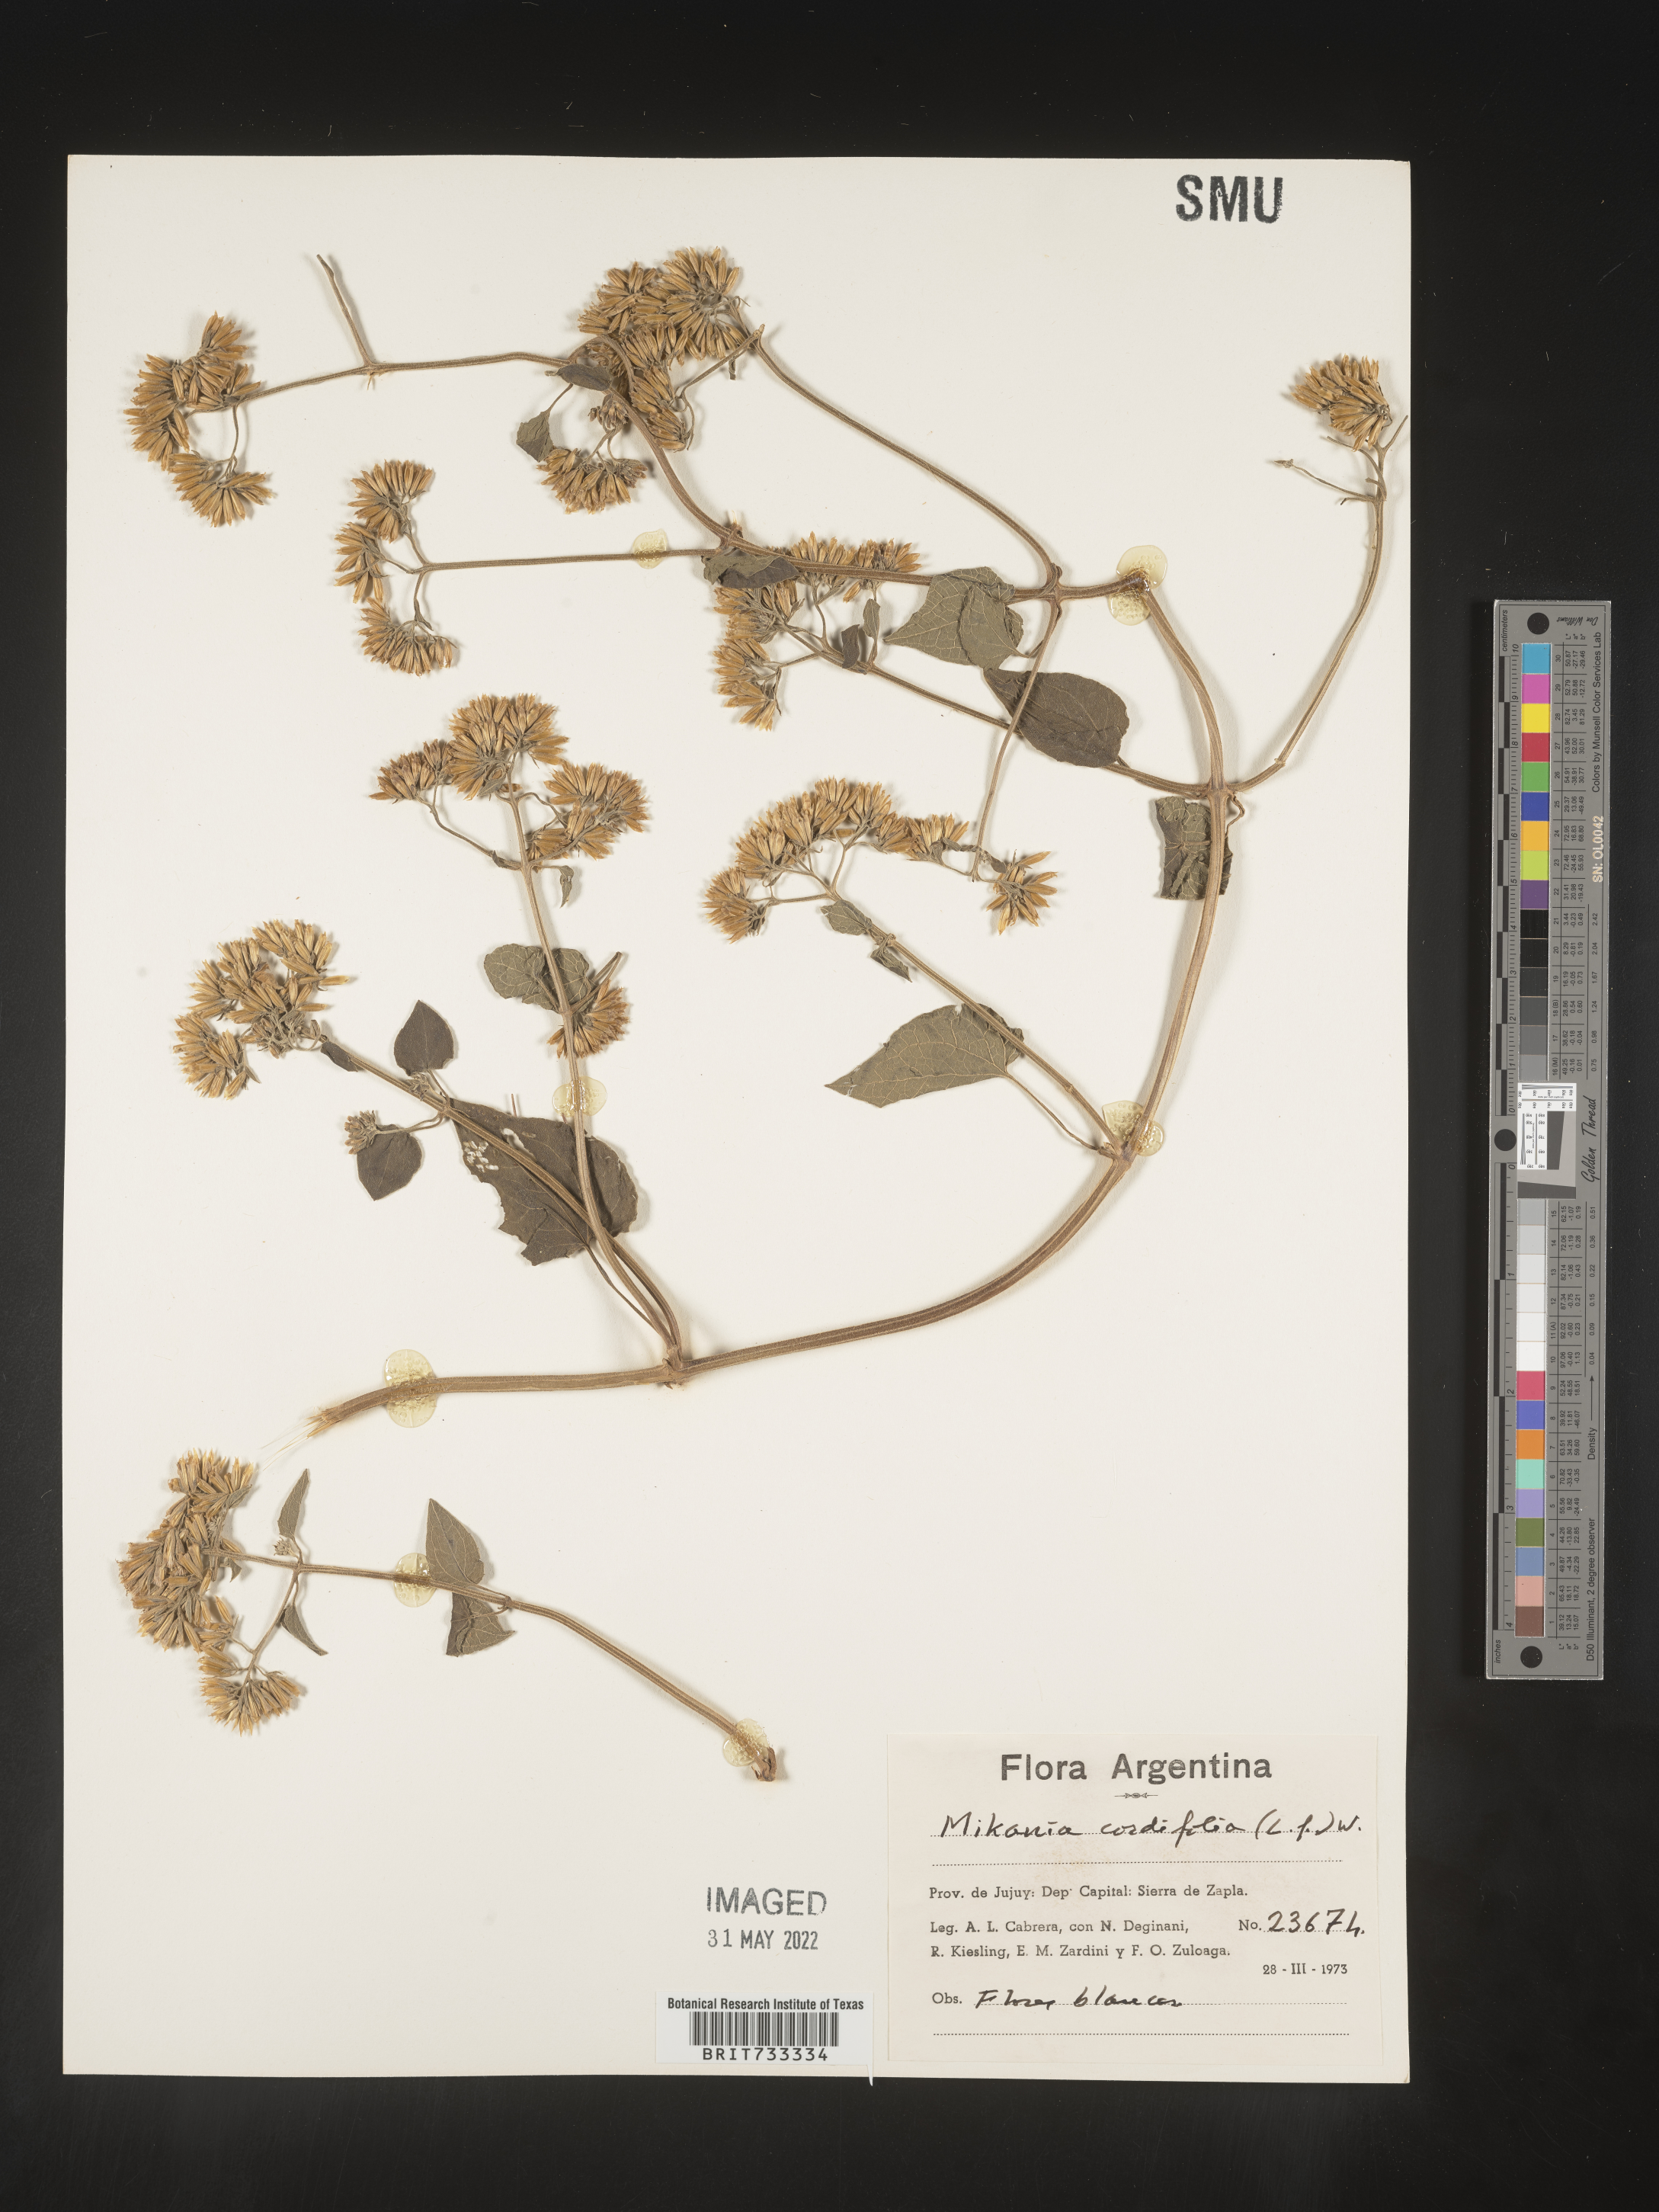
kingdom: Plantae
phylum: Tracheophyta
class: Magnoliopsida
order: Asterales
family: Asteraceae
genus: Mikania
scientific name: Mikania
